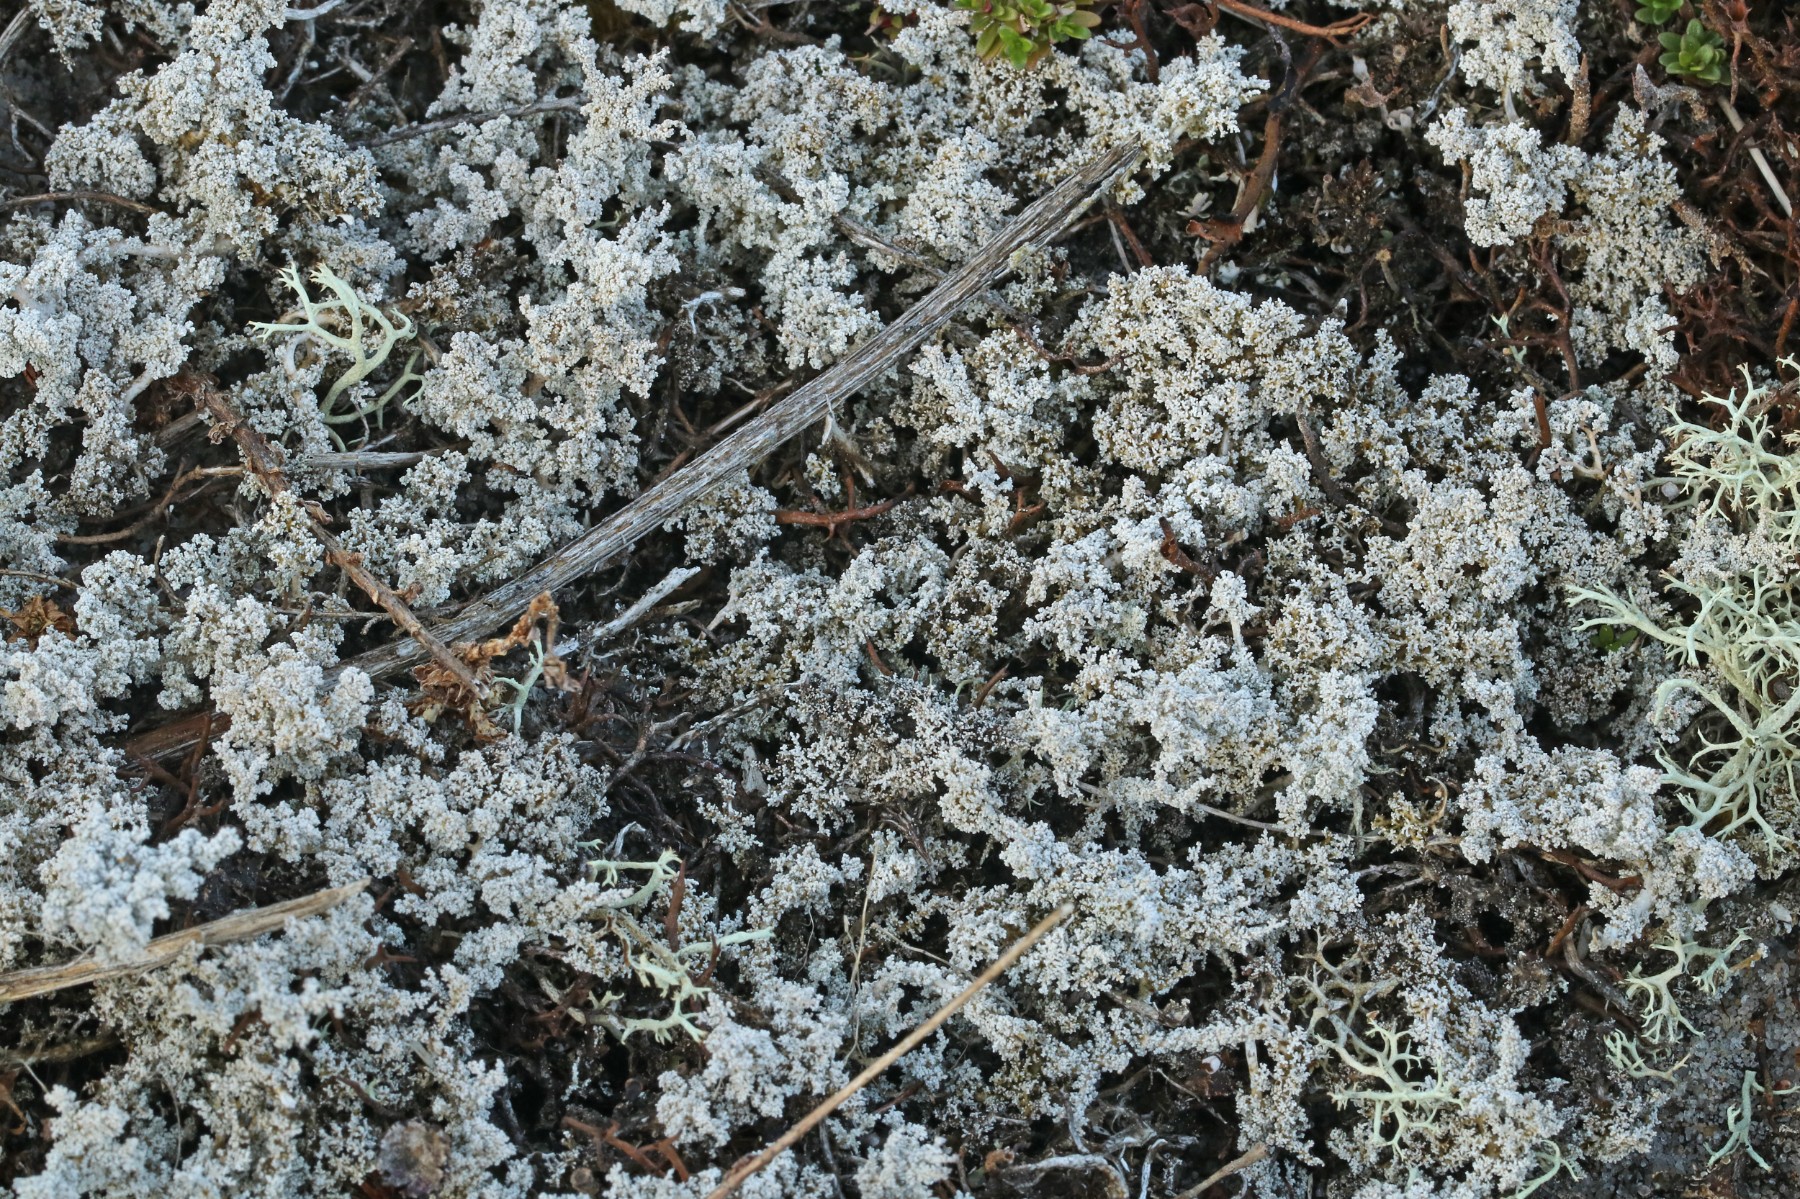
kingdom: Fungi
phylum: Ascomycota
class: Lecanoromycetes
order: Lecanorales
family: Stereocaulaceae
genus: Stereocaulon
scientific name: Stereocaulon saxatile
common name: klit-korallav
